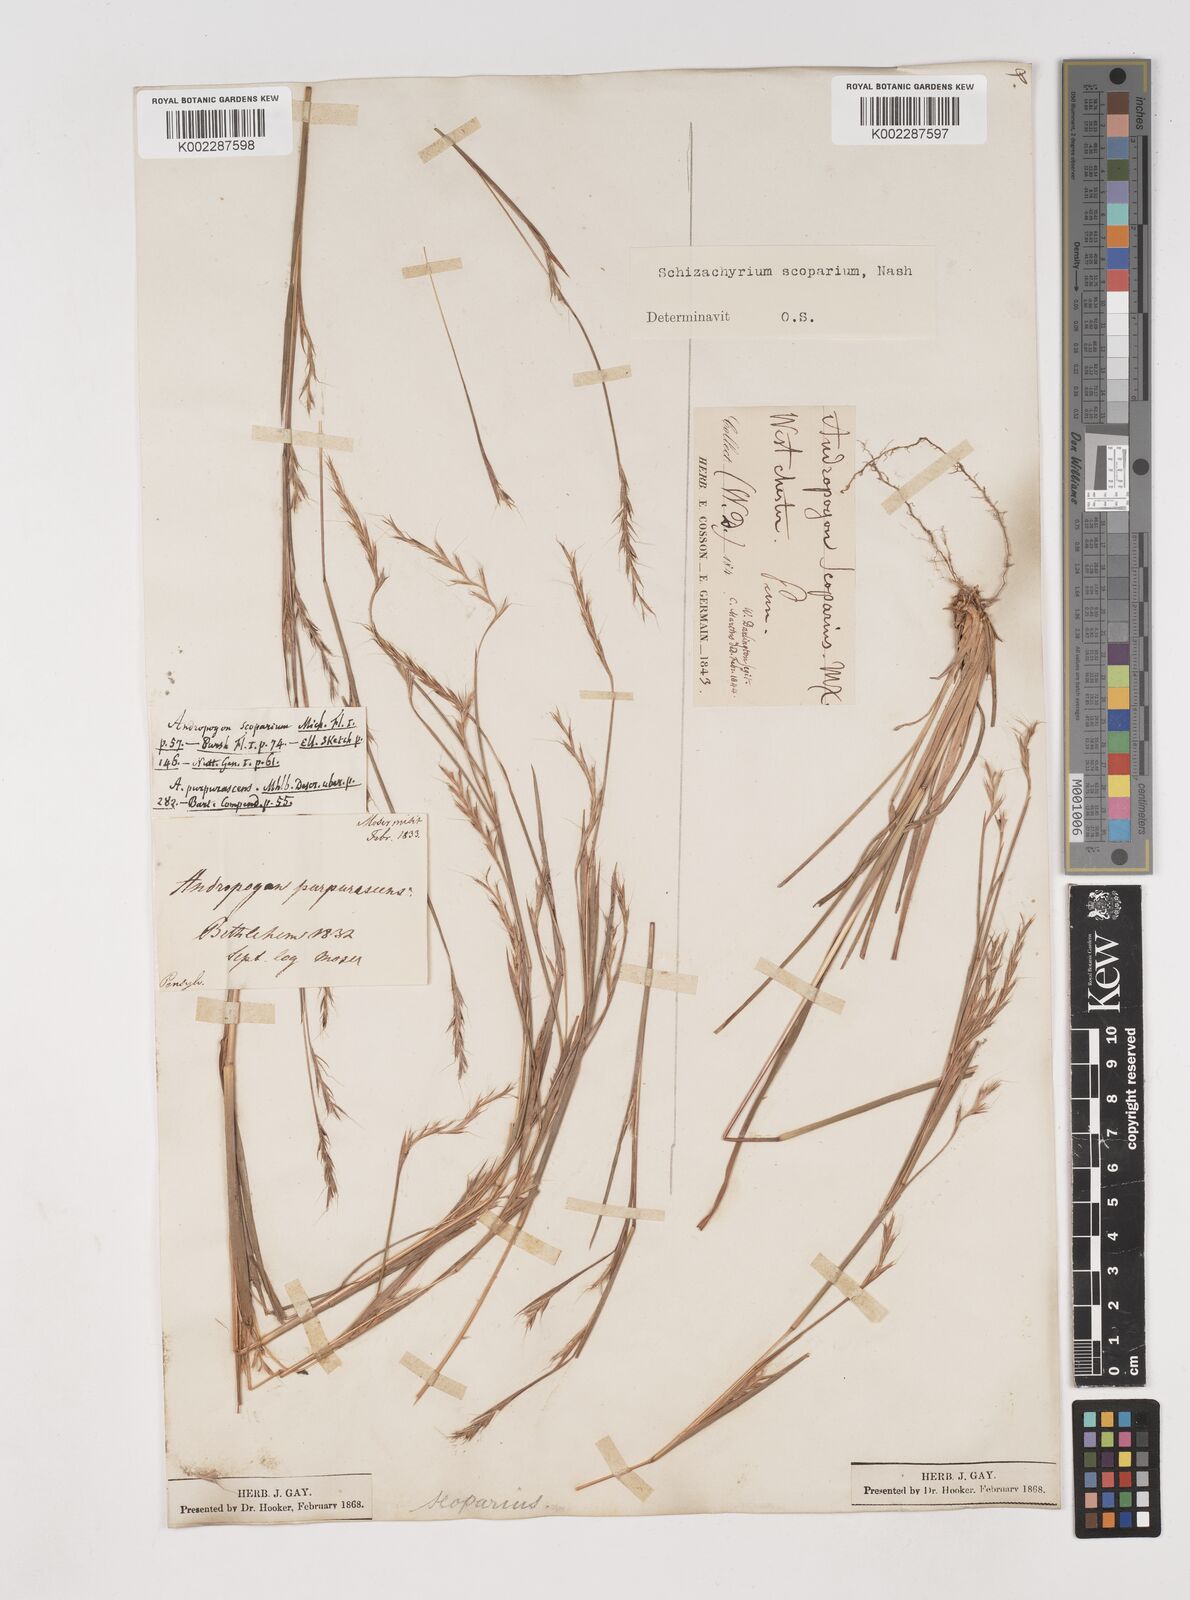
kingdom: Plantae
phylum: Tracheophyta
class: Liliopsida
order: Poales
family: Poaceae
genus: Schizachyrium
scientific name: Schizachyrium scoparium
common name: Little bluestem
